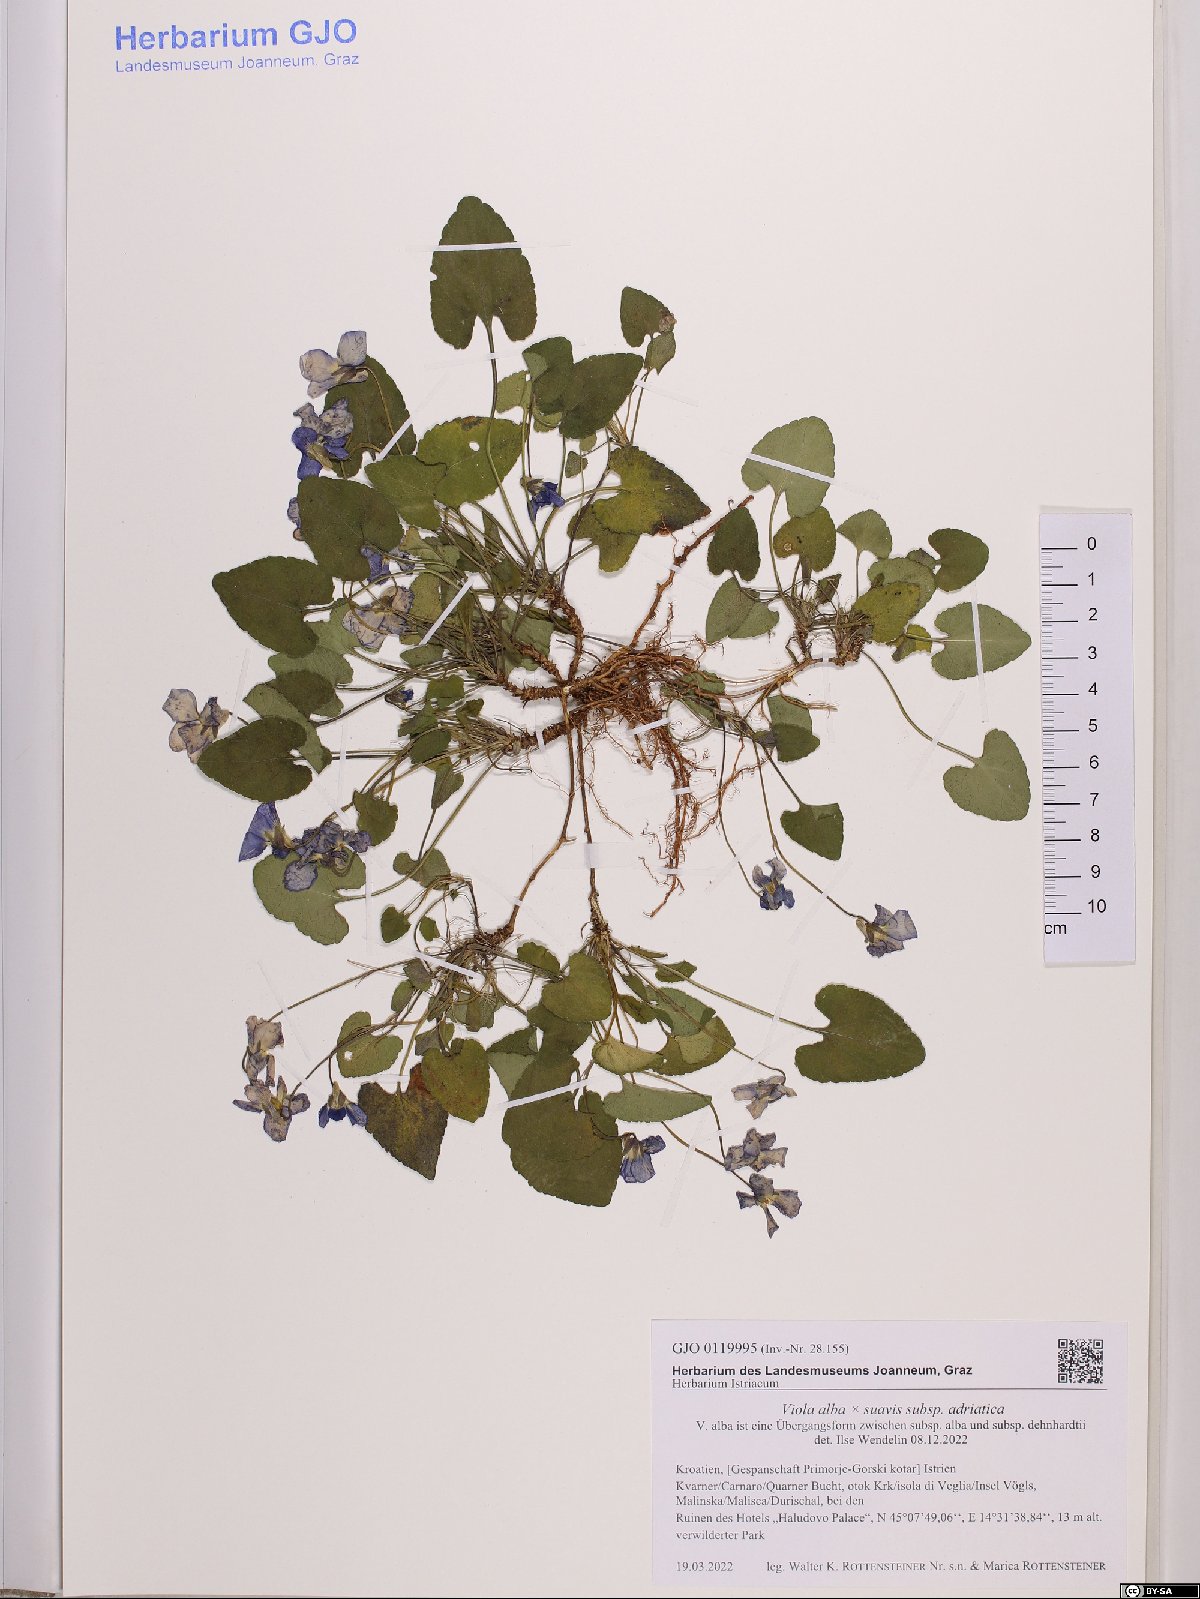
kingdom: Plantae
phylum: Tracheophyta
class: Magnoliopsida
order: Malpighiales
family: Violaceae
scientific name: Violaceae
